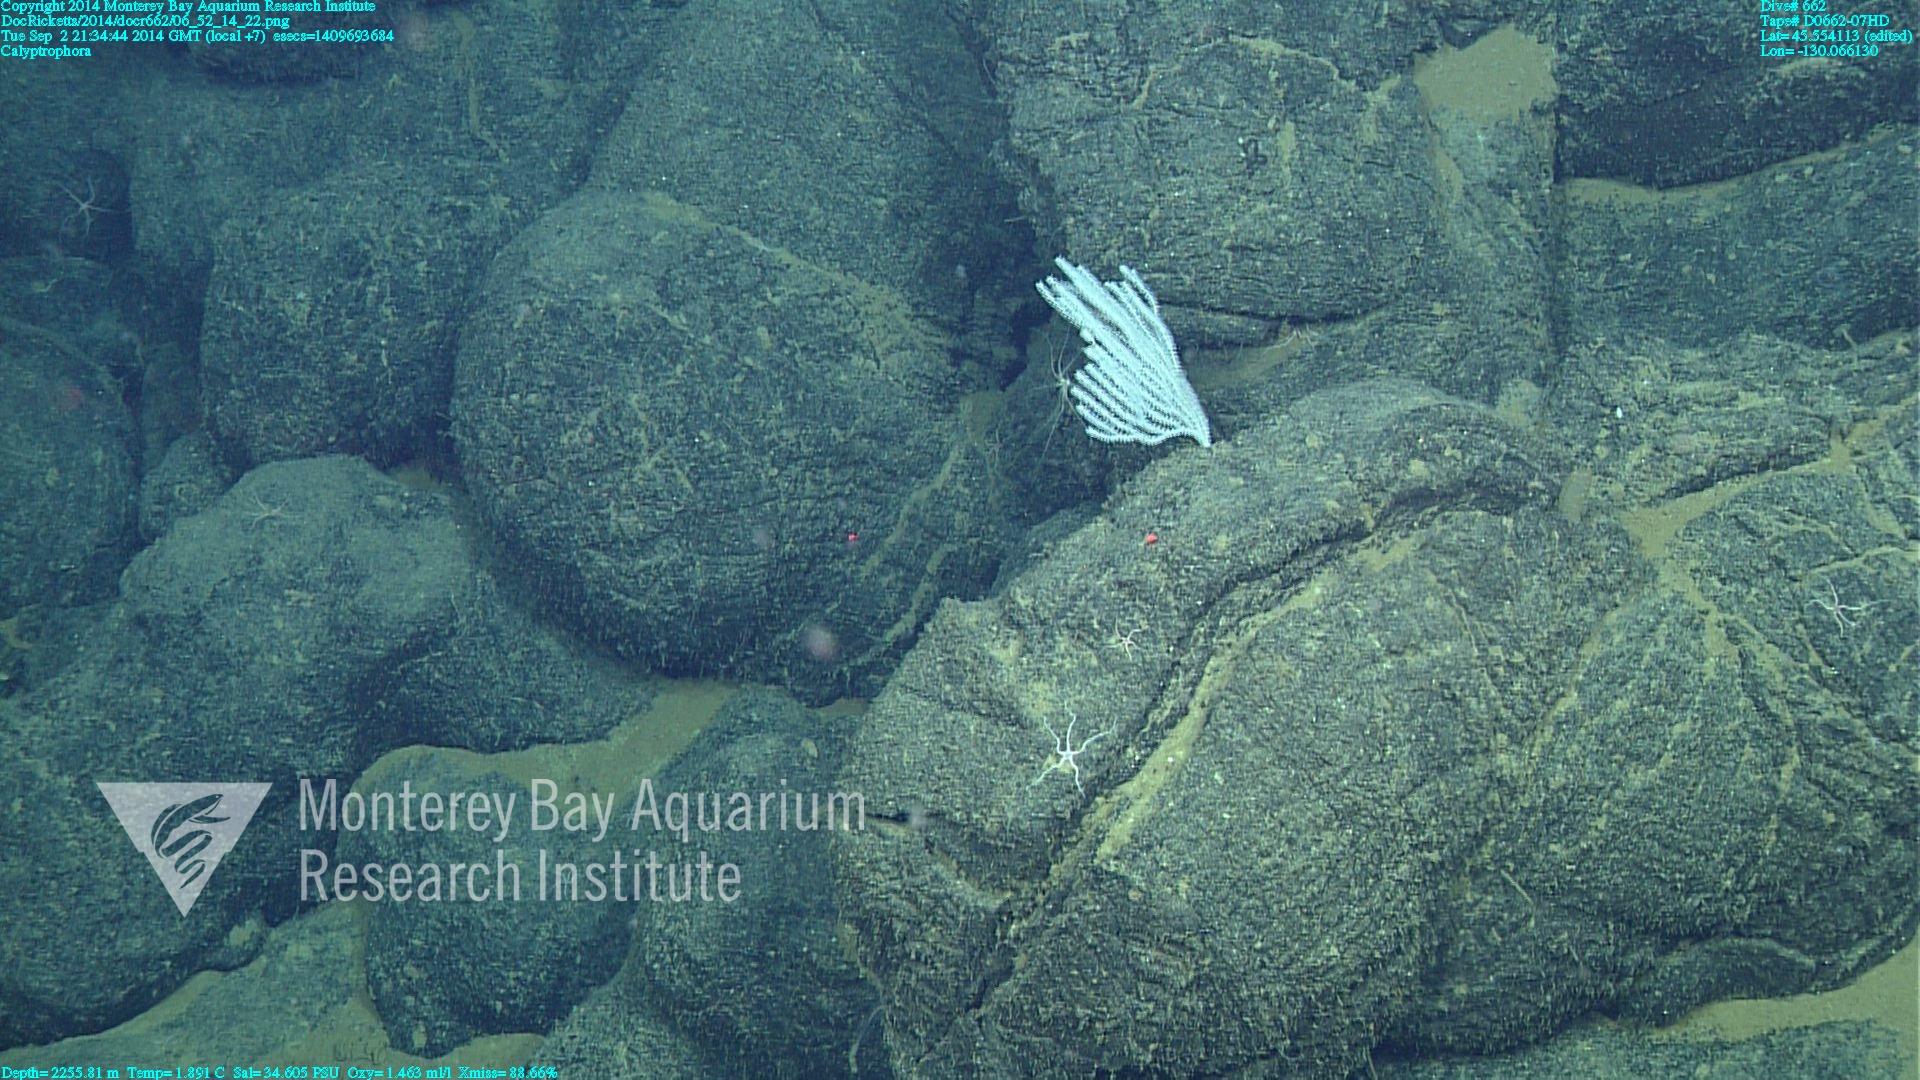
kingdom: Animalia
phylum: Cnidaria
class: Anthozoa
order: Scleralcyonacea
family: Primnoidae
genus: Calyptrophora
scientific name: Calyptrophora
